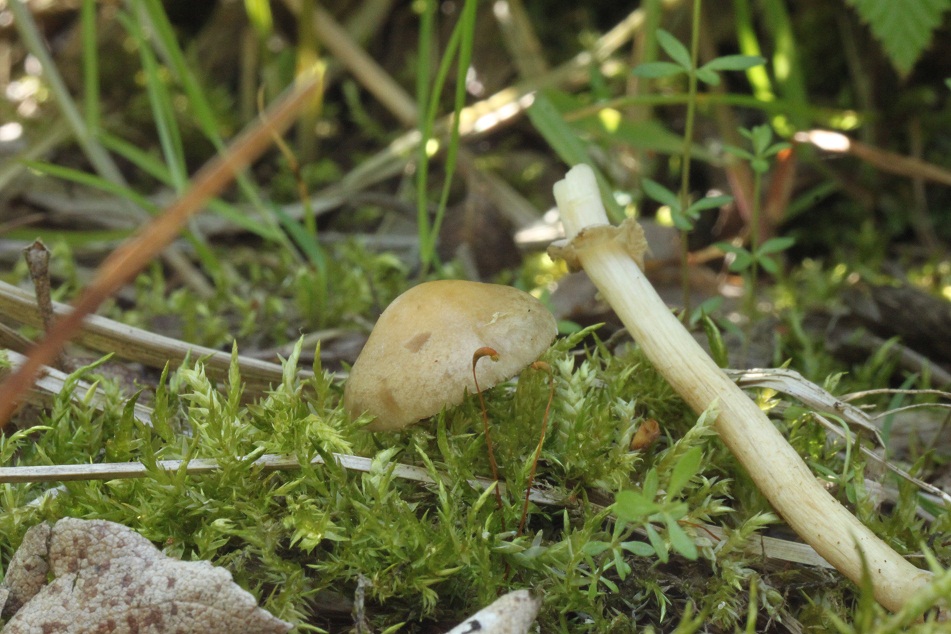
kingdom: Fungi
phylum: Basidiomycota
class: Agaricomycetes
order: Agaricales
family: Strophariaceae
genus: Agrocybe
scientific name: Agrocybe elatella
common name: mose-agerhat
